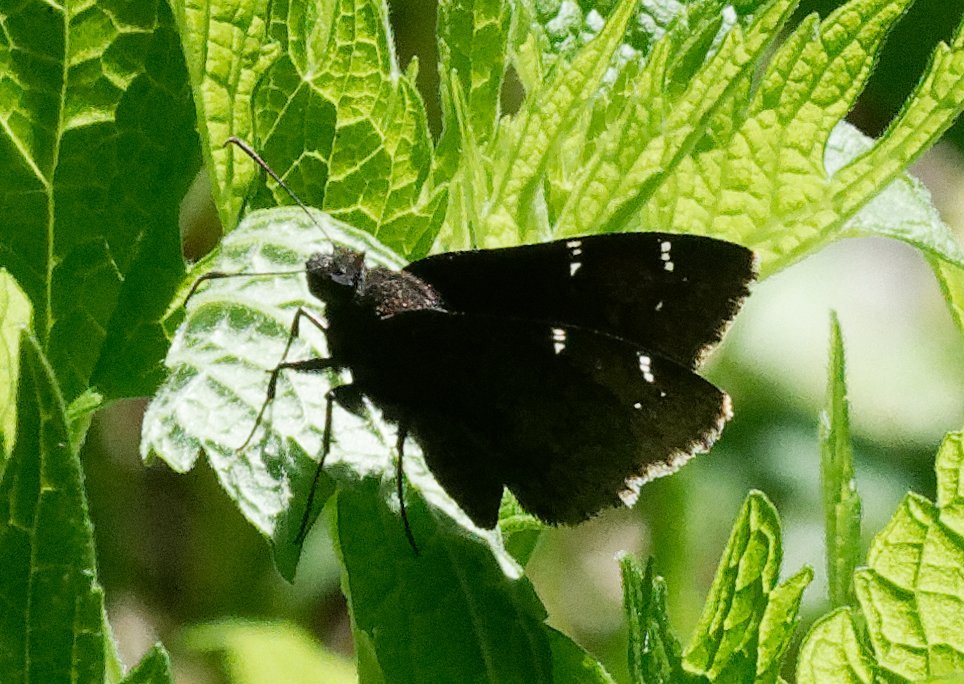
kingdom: Animalia
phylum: Arthropoda
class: Insecta
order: Lepidoptera
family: Hesperiidae
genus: Autochton
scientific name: Autochton
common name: Northern Cloudywing
